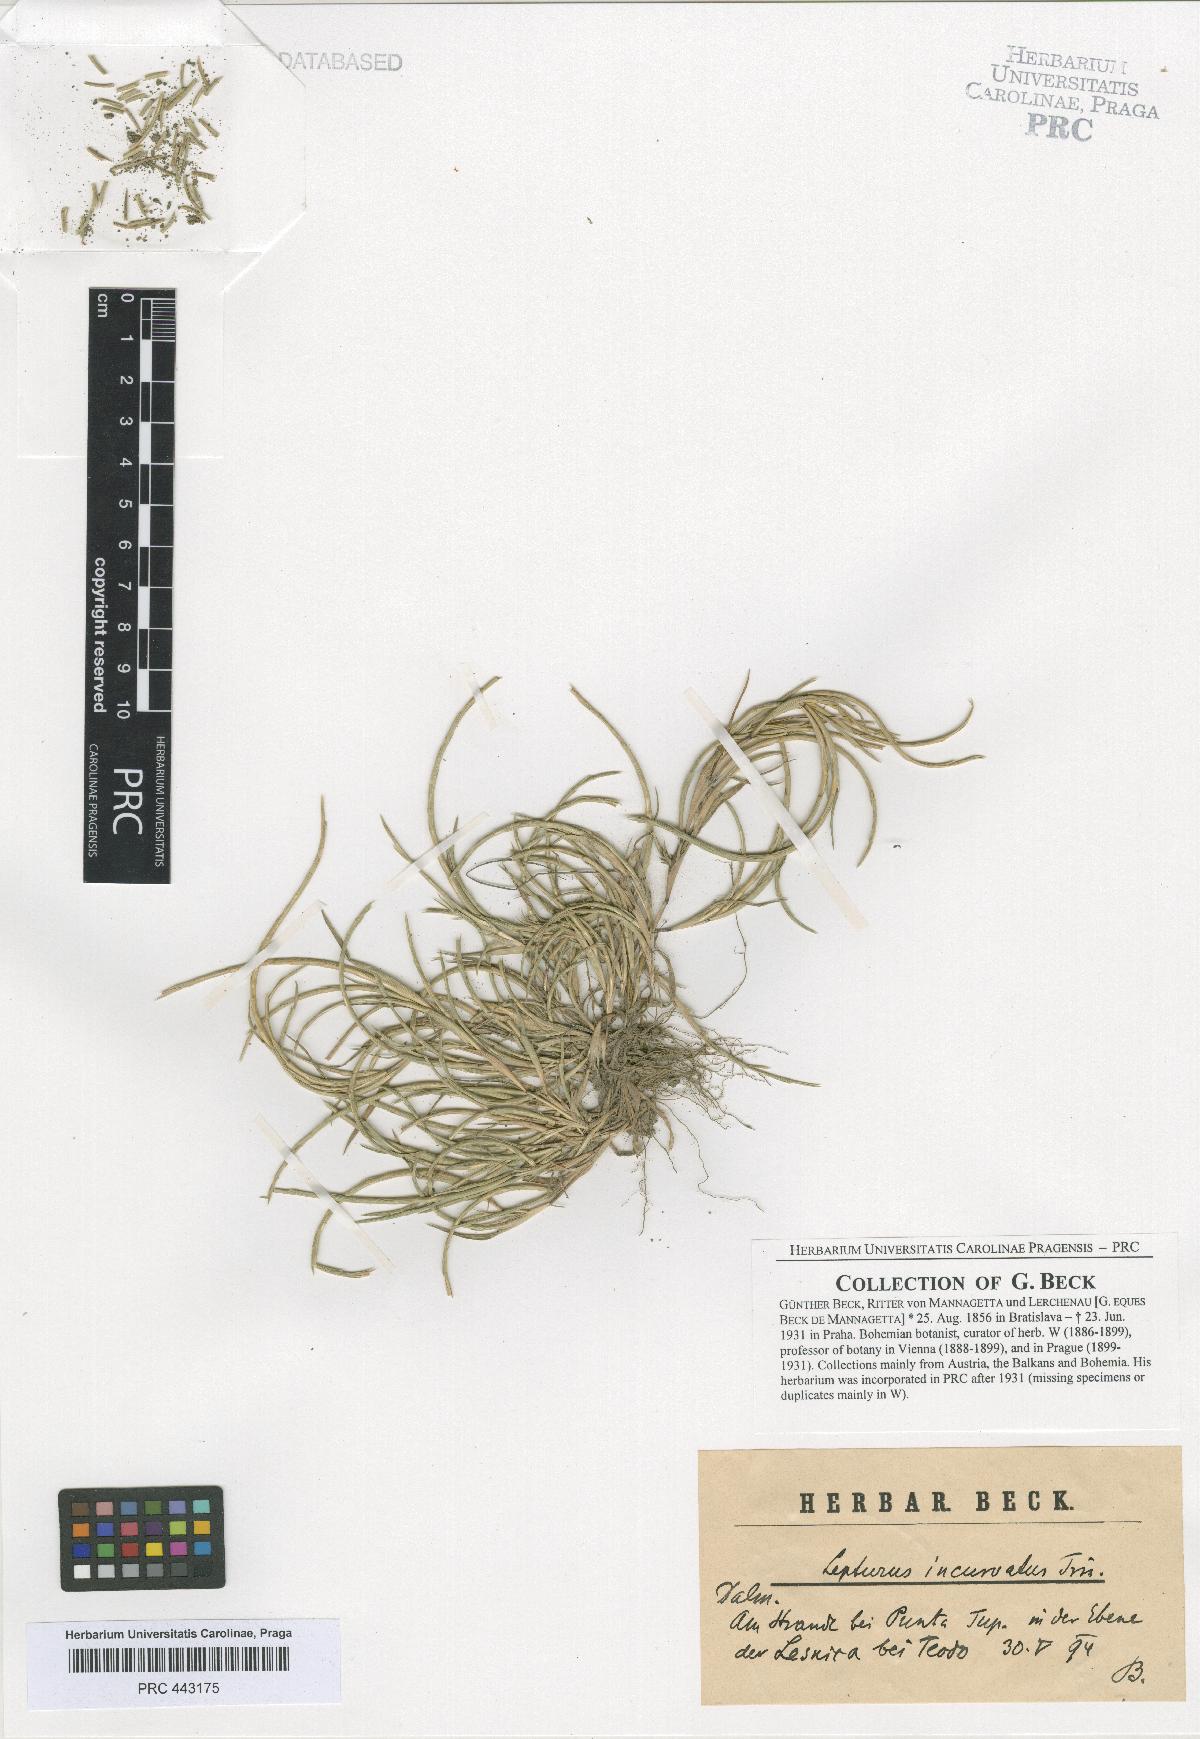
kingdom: Plantae
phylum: Tracheophyta
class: Liliopsida
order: Poales
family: Poaceae
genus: Parapholis
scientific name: Parapholis incurva
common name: Curved sicklegrass
